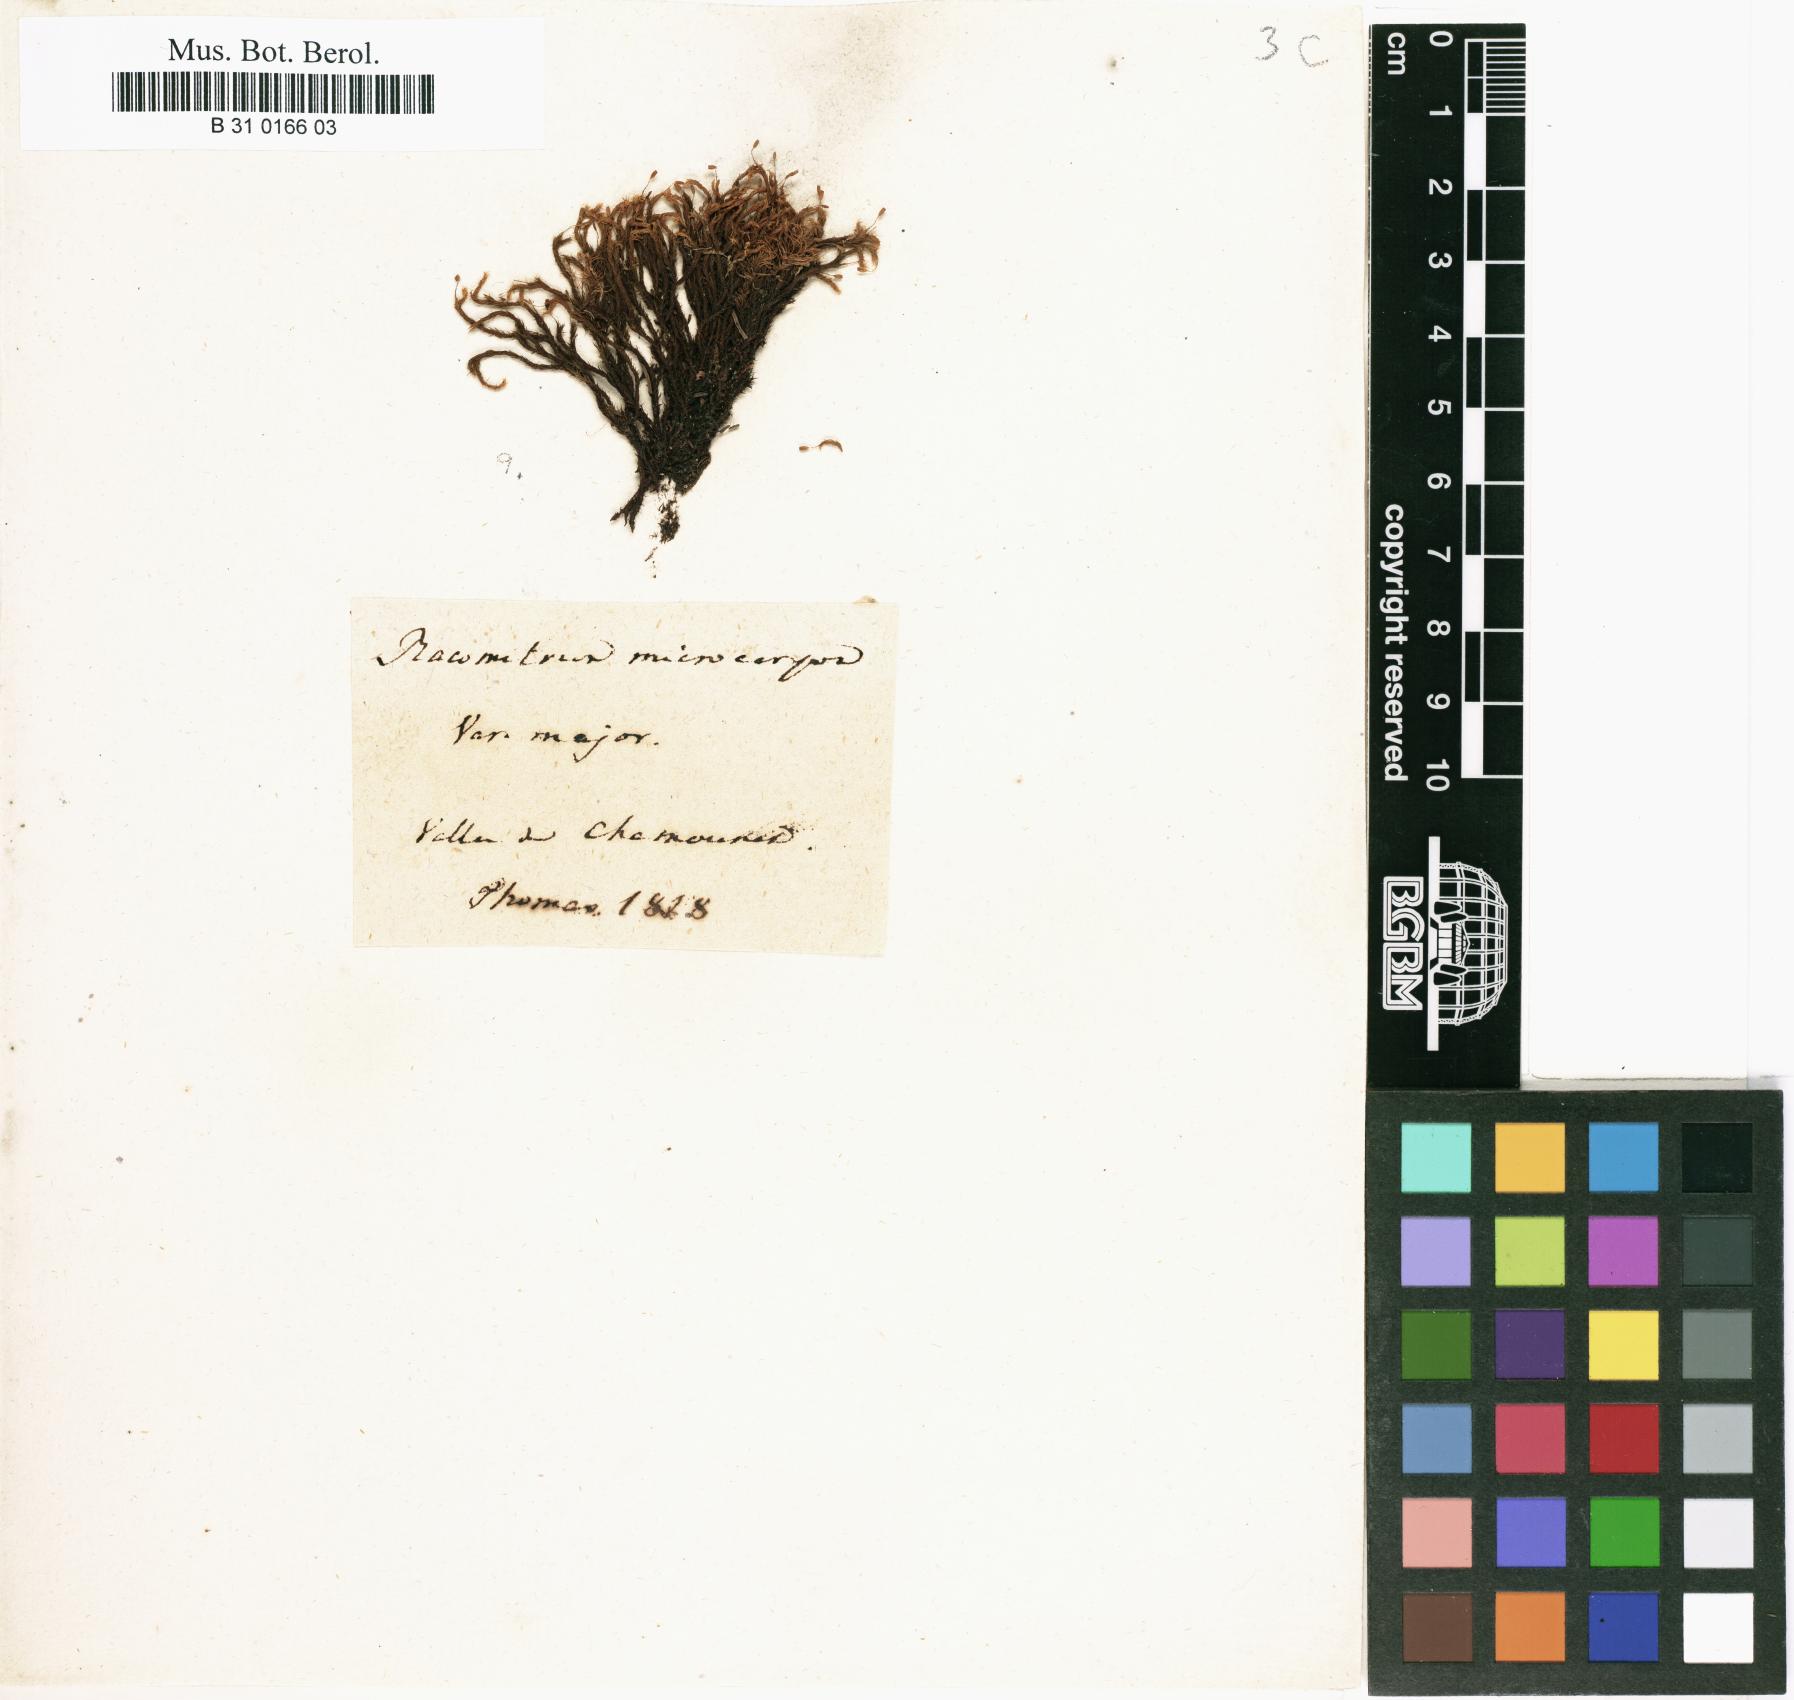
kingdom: Plantae
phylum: Bryophyta
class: Bryopsida
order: Grimmiales
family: Grimmiaceae
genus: Bucklandiella
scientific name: Bucklandiella microcarpos
